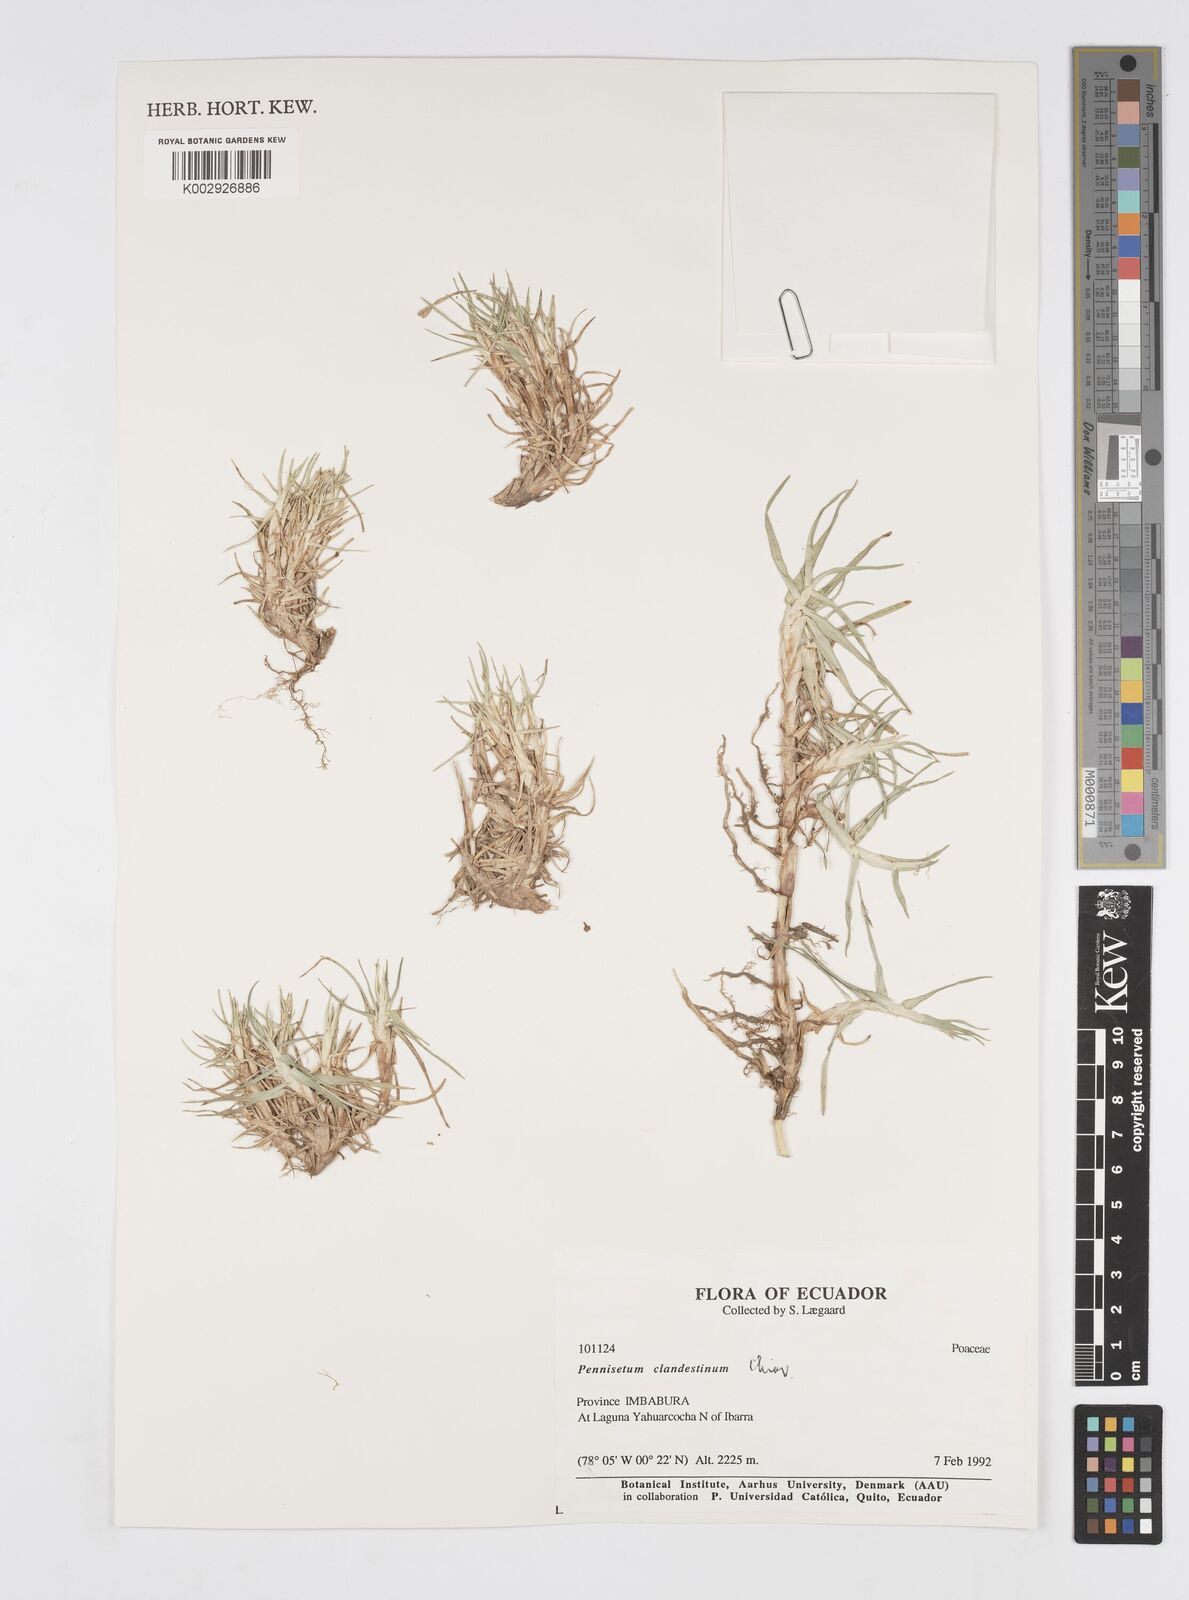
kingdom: Plantae
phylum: Tracheophyta
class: Liliopsida
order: Poales
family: Poaceae
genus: Cenchrus
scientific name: Cenchrus clandestinus
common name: Kikuyugrass
